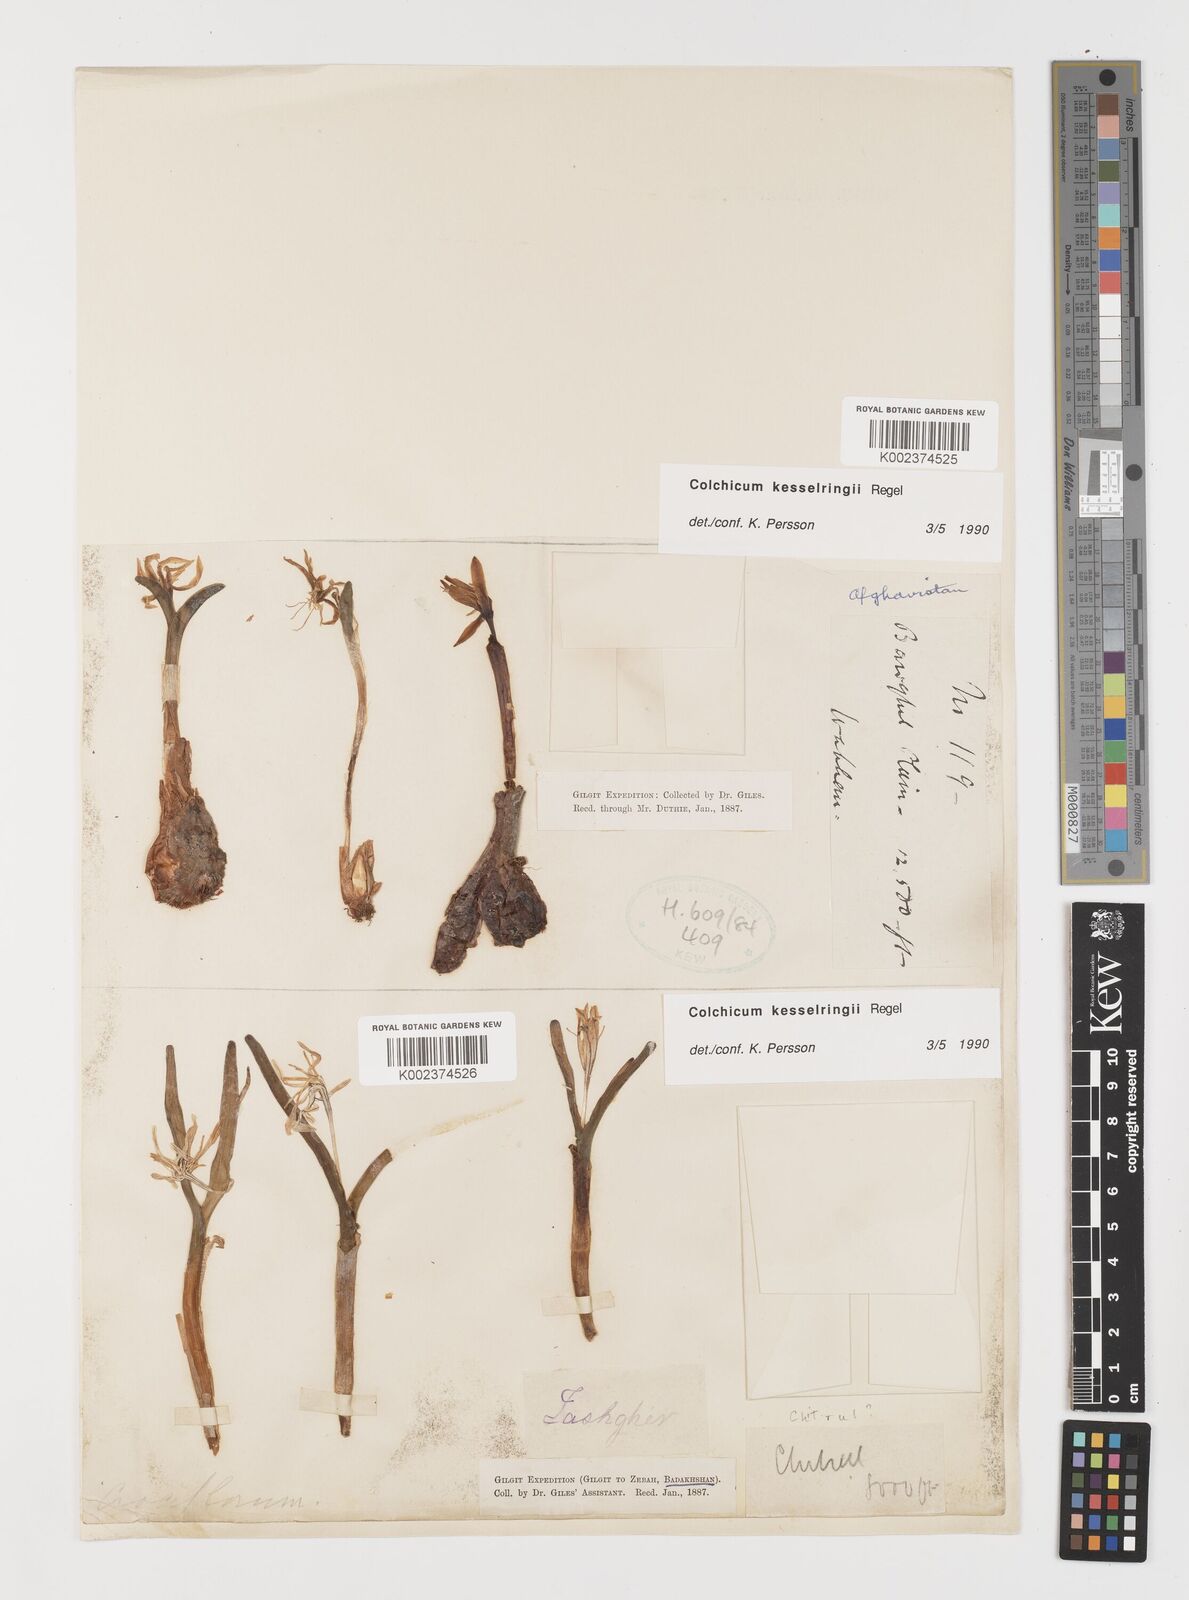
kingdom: Plantae
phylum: Tracheophyta
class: Liliopsida
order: Liliales
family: Colchicaceae
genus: Colchicum
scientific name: Colchicum kesselringii
